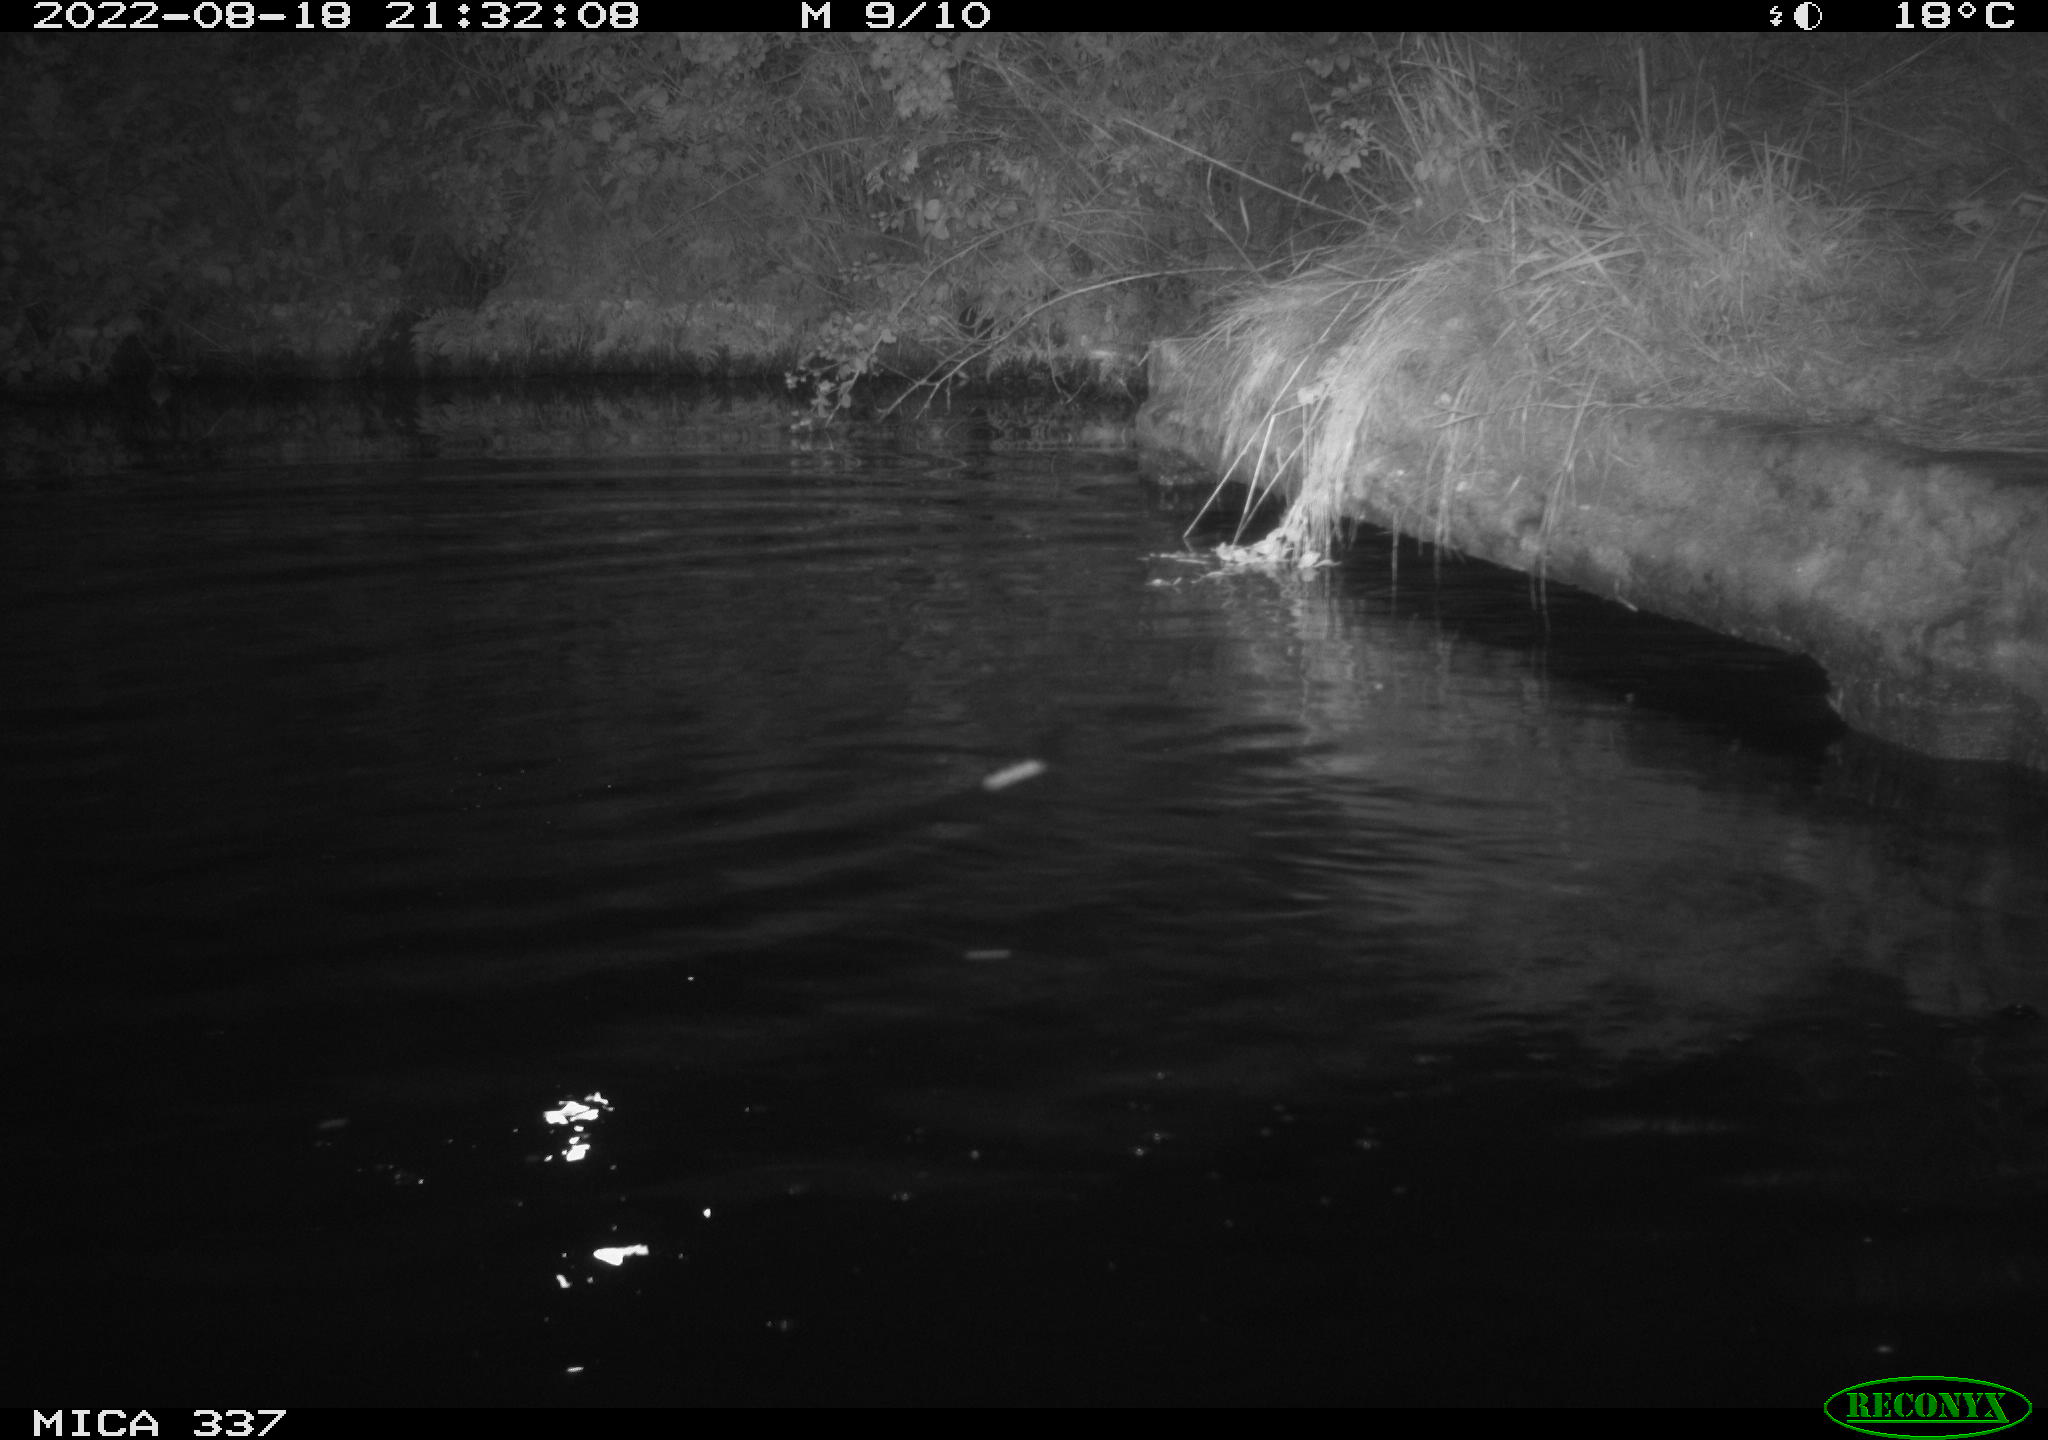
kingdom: Animalia
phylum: Chordata
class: Aves
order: Anseriformes
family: Anatidae
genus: Anas
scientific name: Anas platyrhynchos
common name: Mallard
